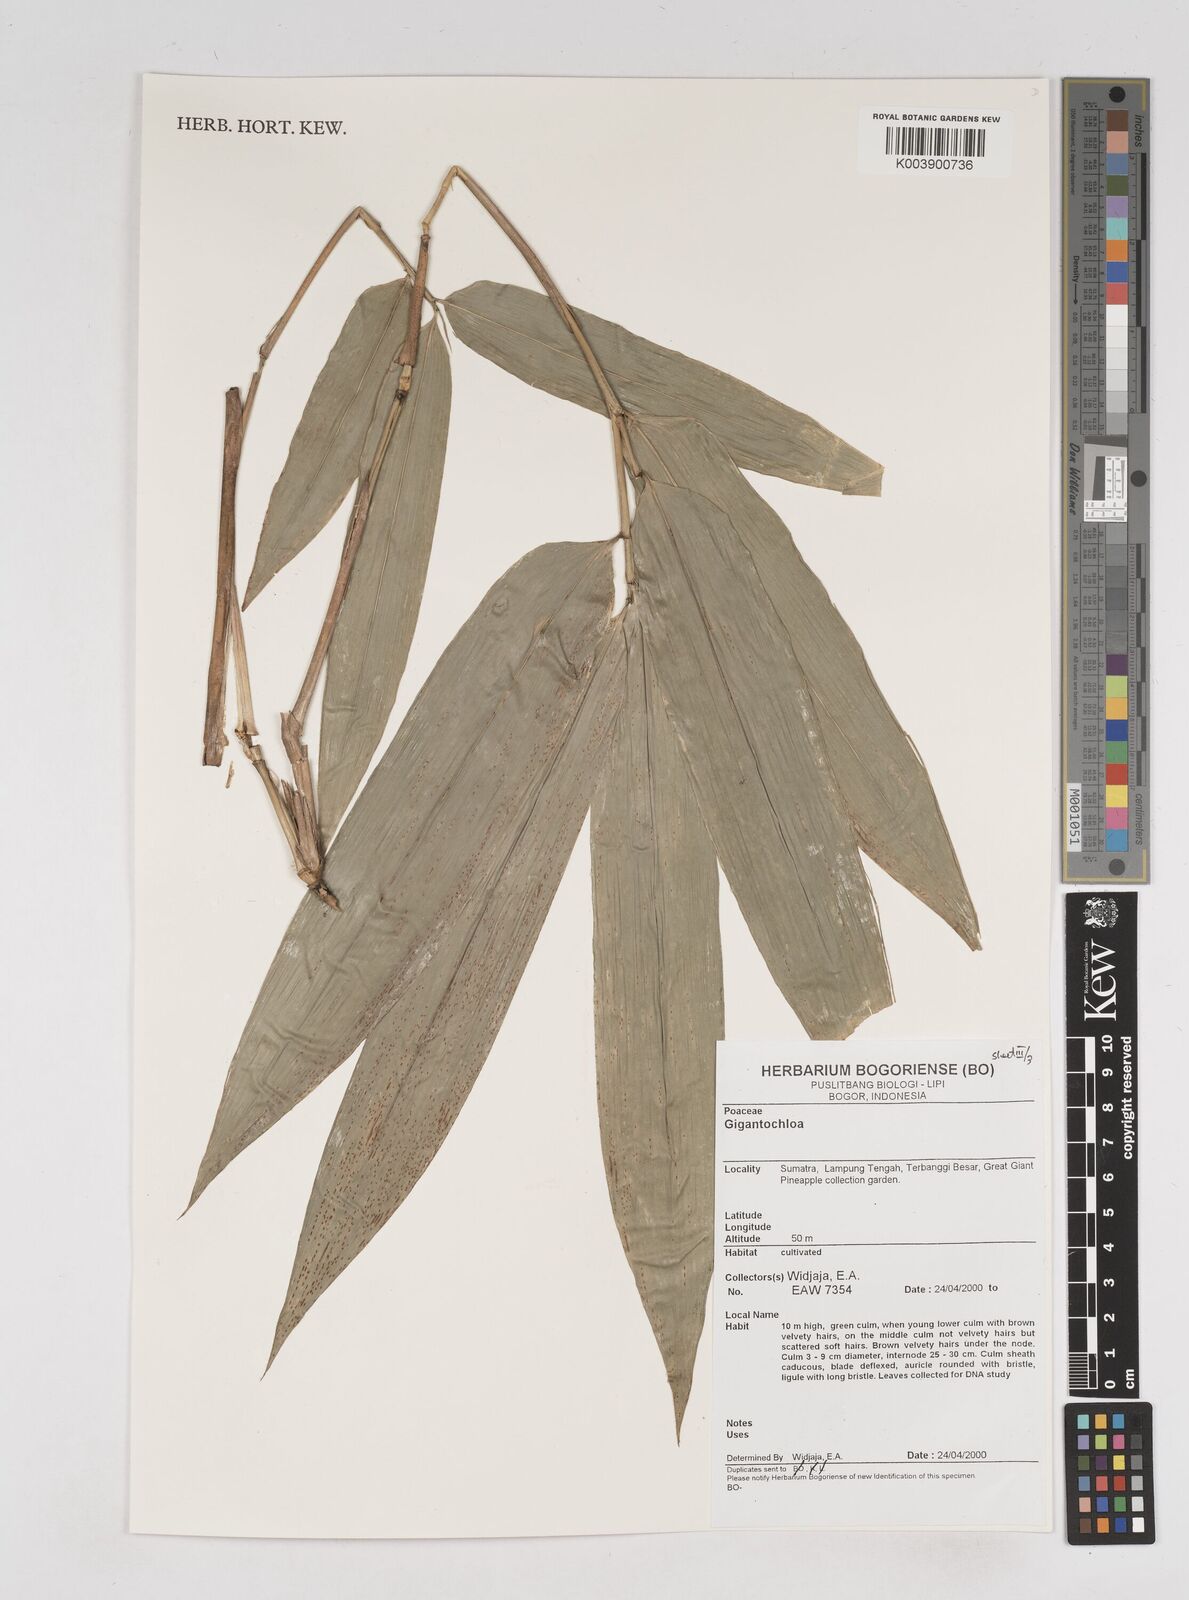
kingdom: Plantae
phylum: Tracheophyta
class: Liliopsida
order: Poales
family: Poaceae
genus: Gigantochloa
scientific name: Gigantochloa
